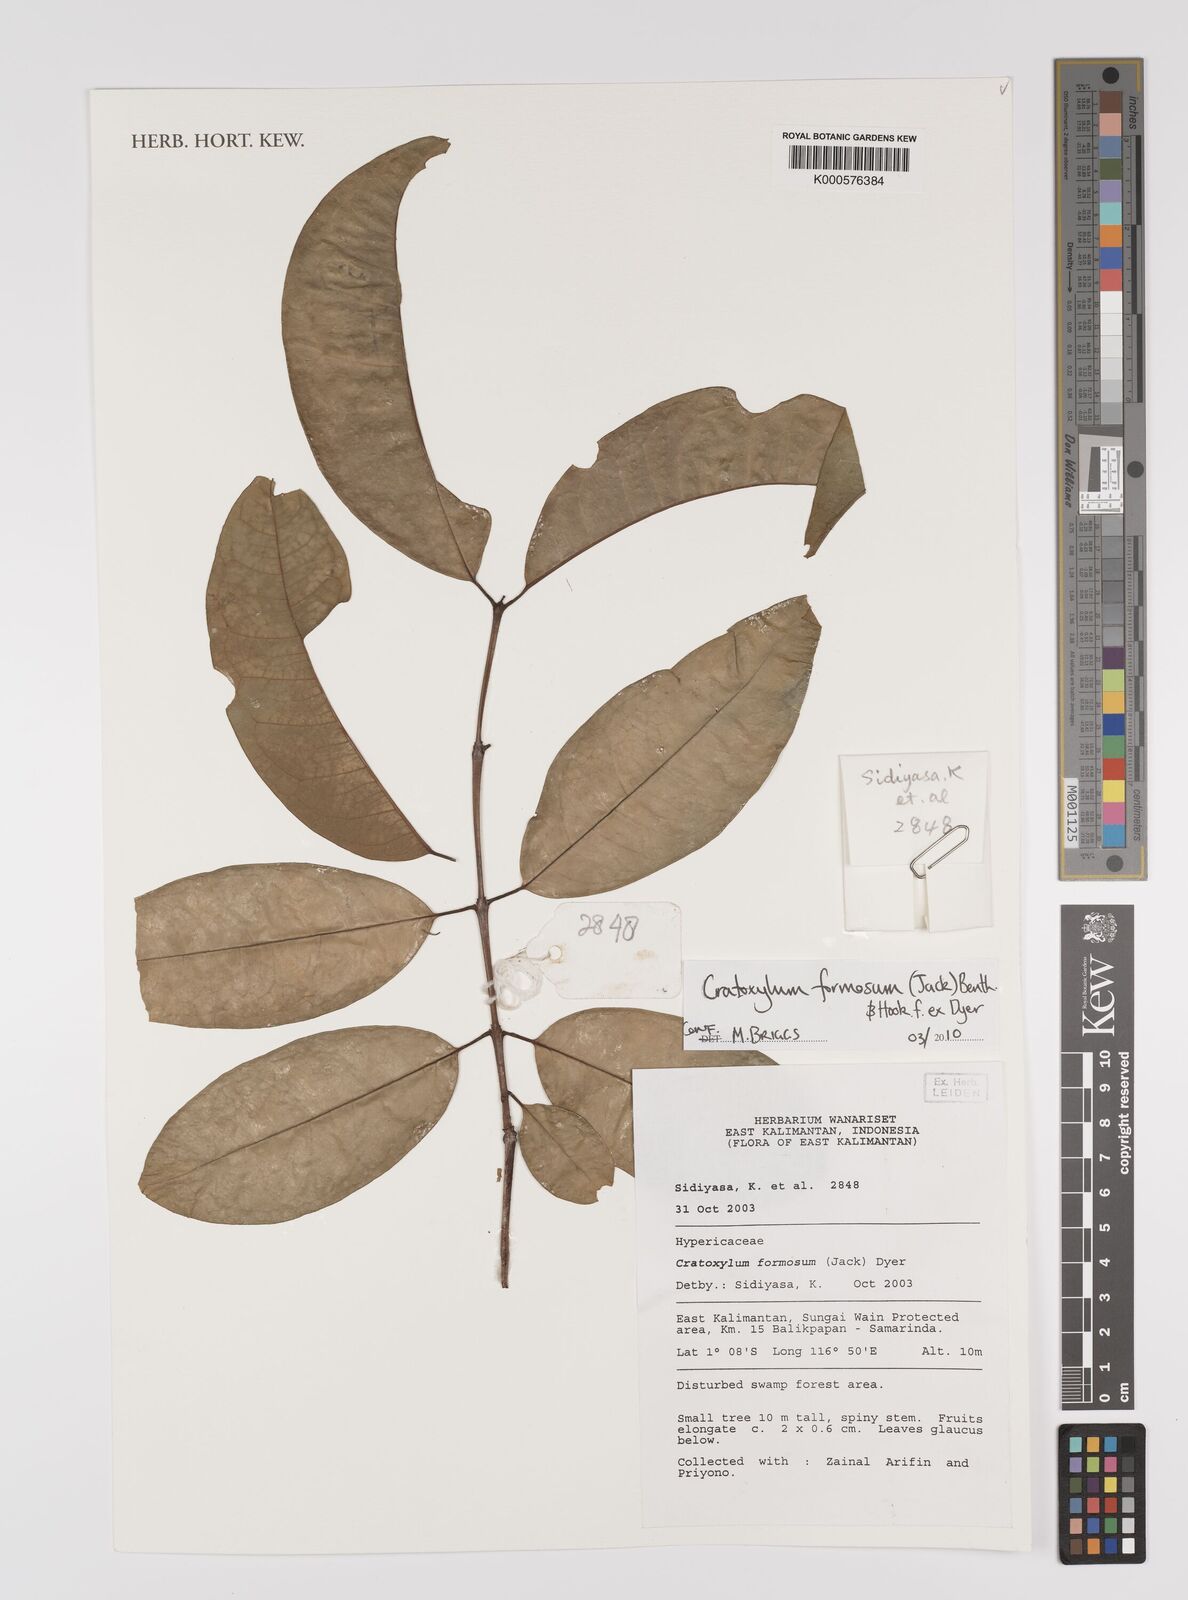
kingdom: Plantae
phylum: Tracheophyta
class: Magnoliopsida
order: Malpighiales
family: Hypericaceae
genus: Cratoxylum
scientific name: Cratoxylum formosum
